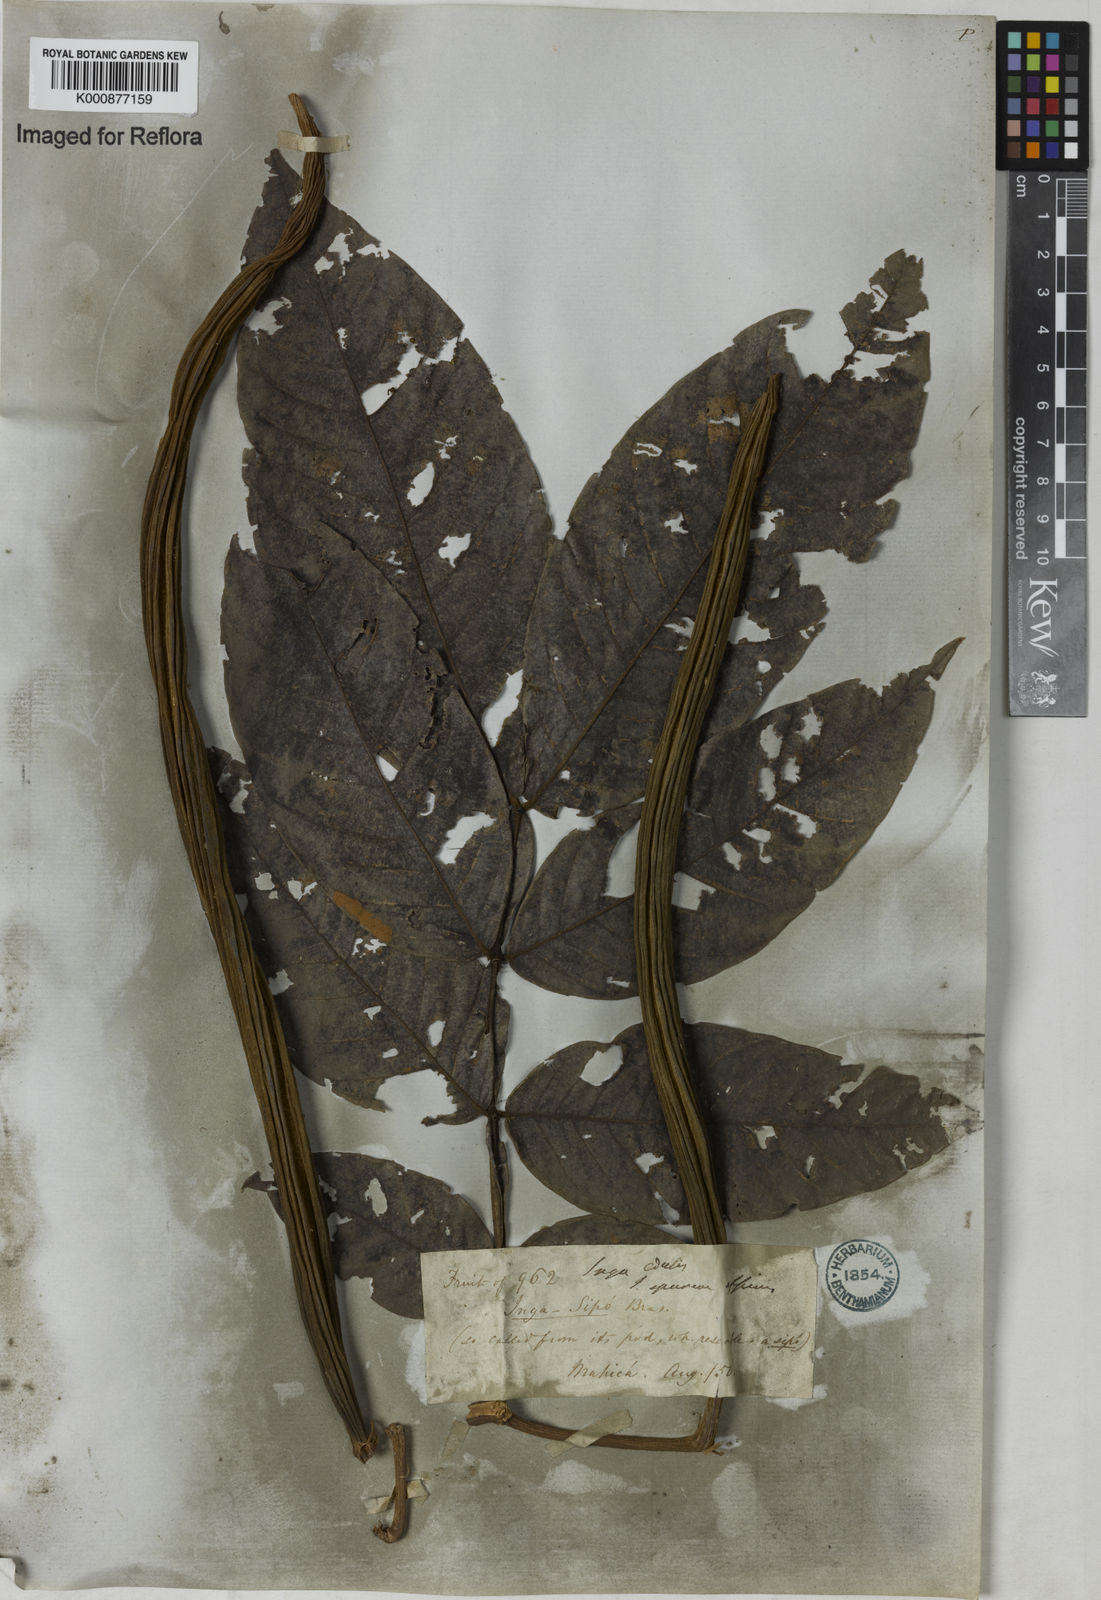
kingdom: Plantae
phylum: Tracheophyta
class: Magnoliopsida
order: Fabales
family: Fabaceae
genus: Inga
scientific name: Inga edulis
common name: Ice cream bean
